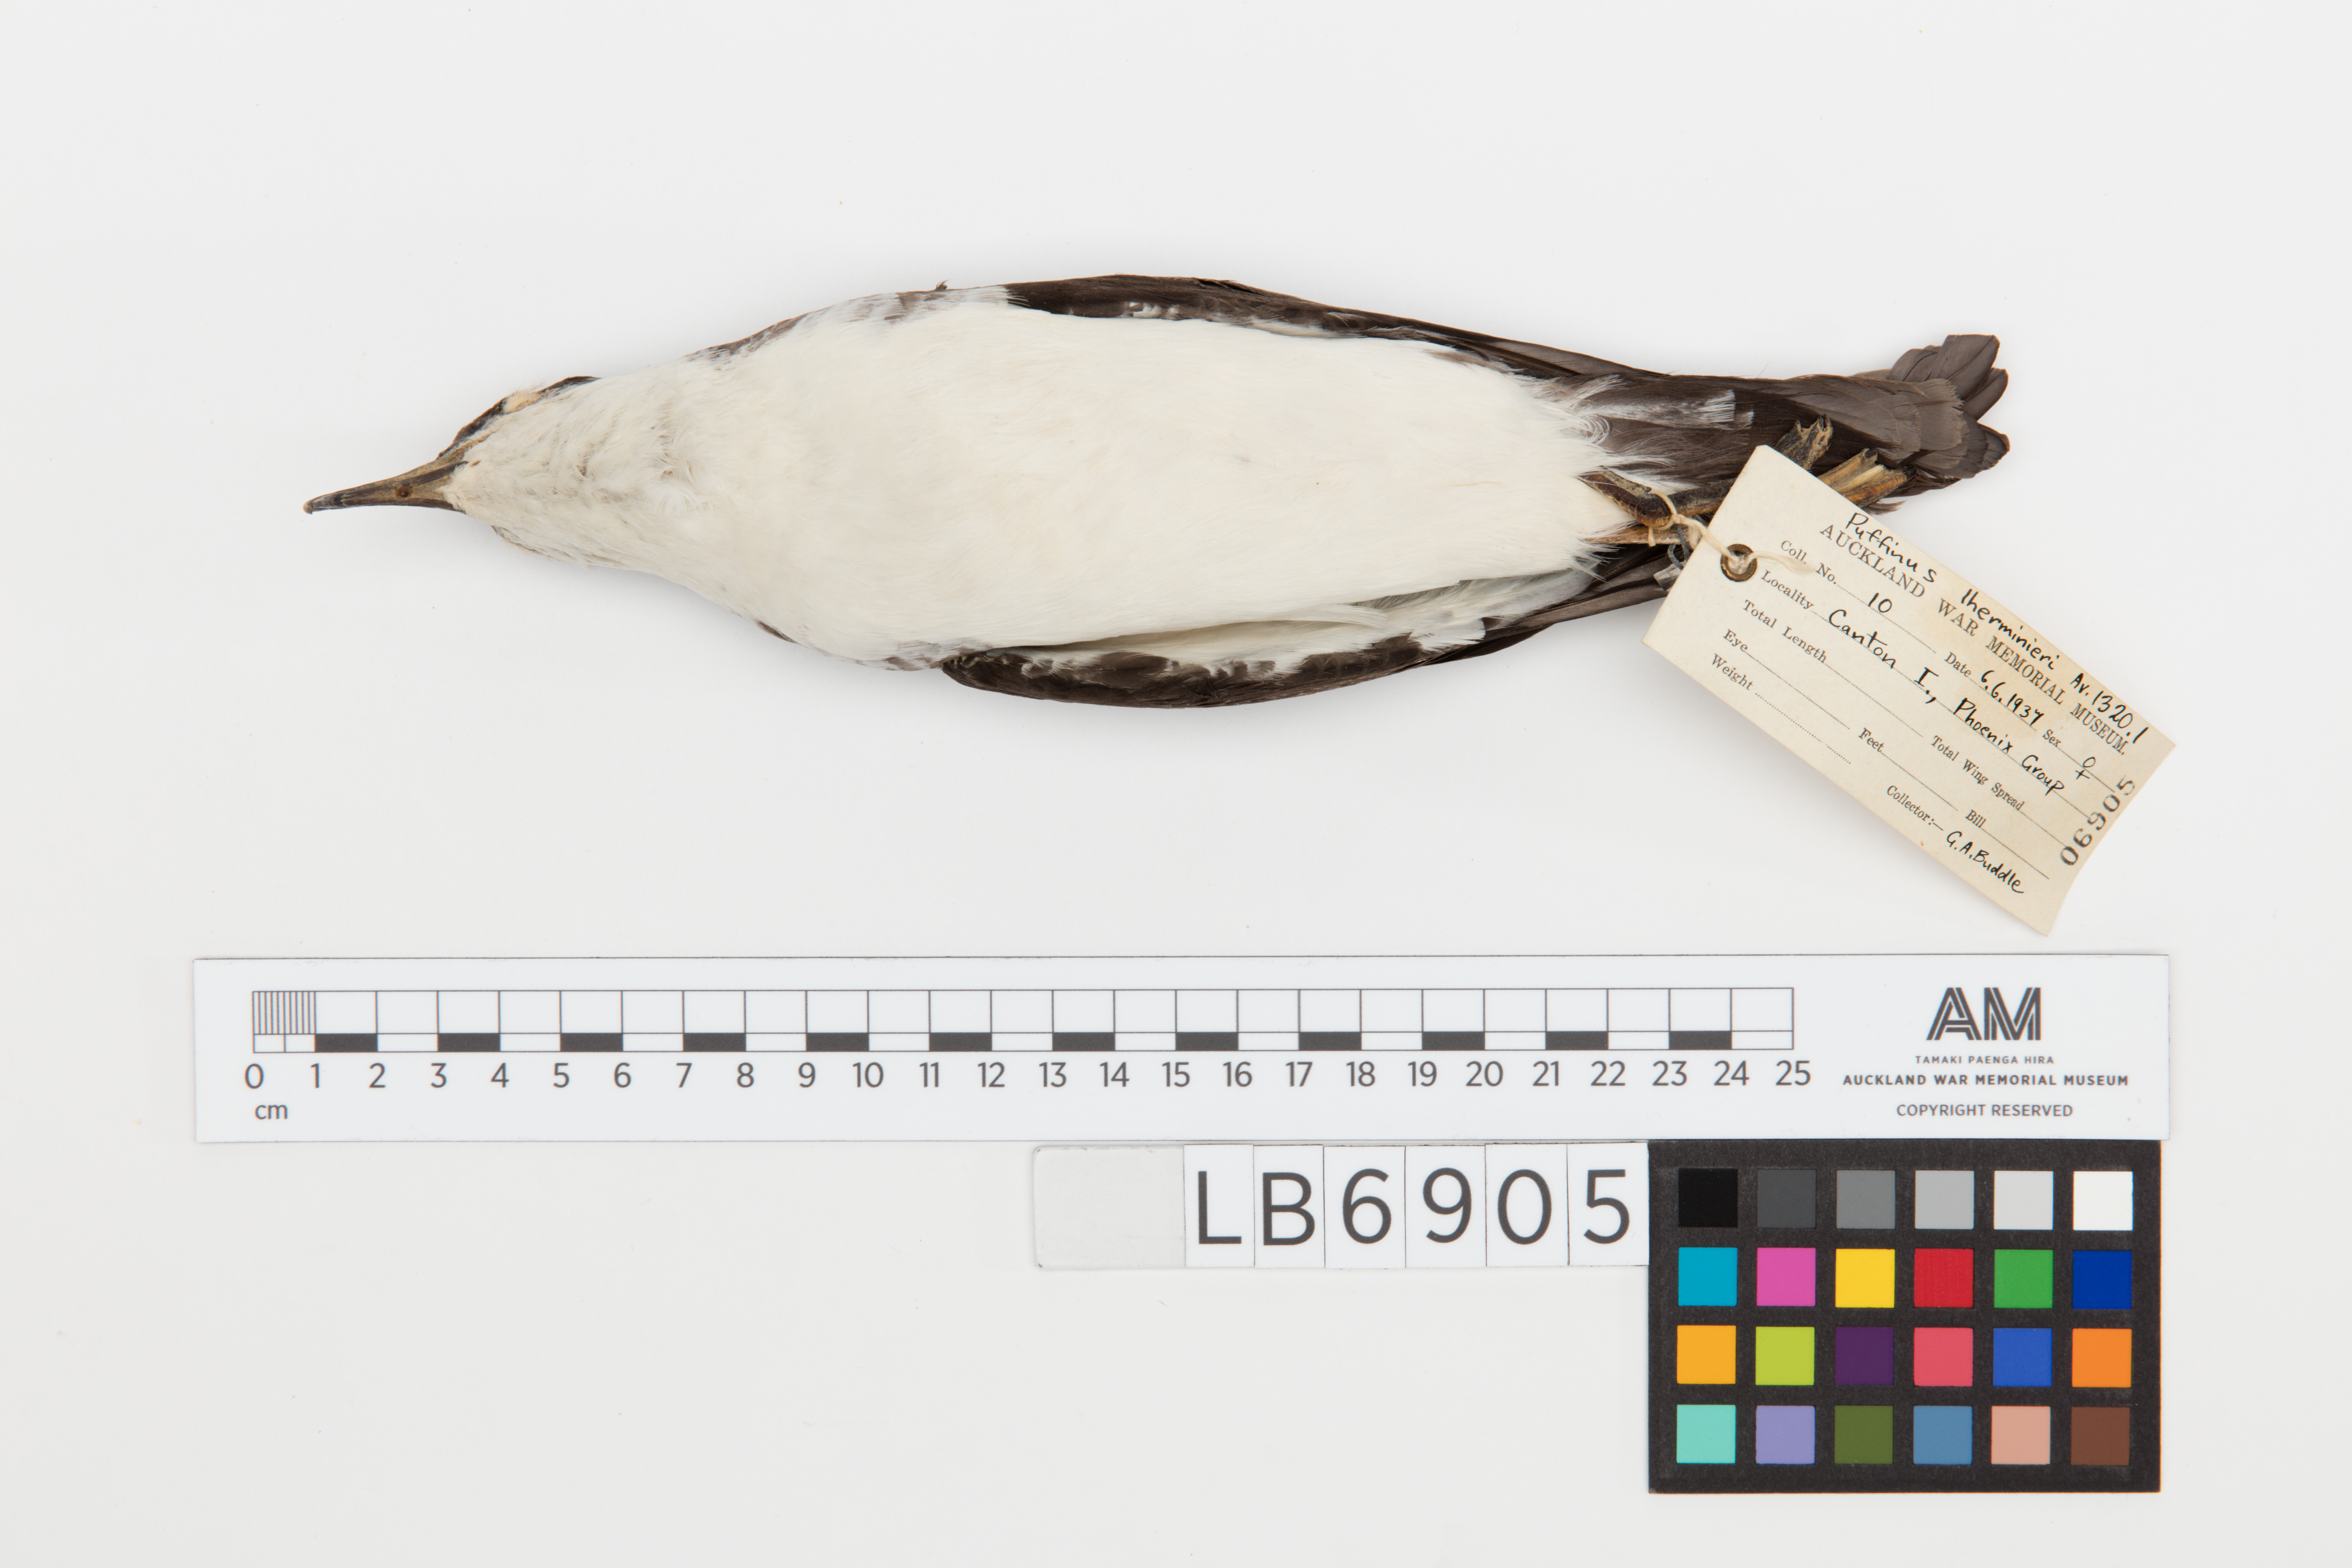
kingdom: Animalia
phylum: Chordata
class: Aves
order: Procellariiformes
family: Procellariidae
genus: Puffinus
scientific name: Puffinus lherminieri
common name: Audubon's shearwater
